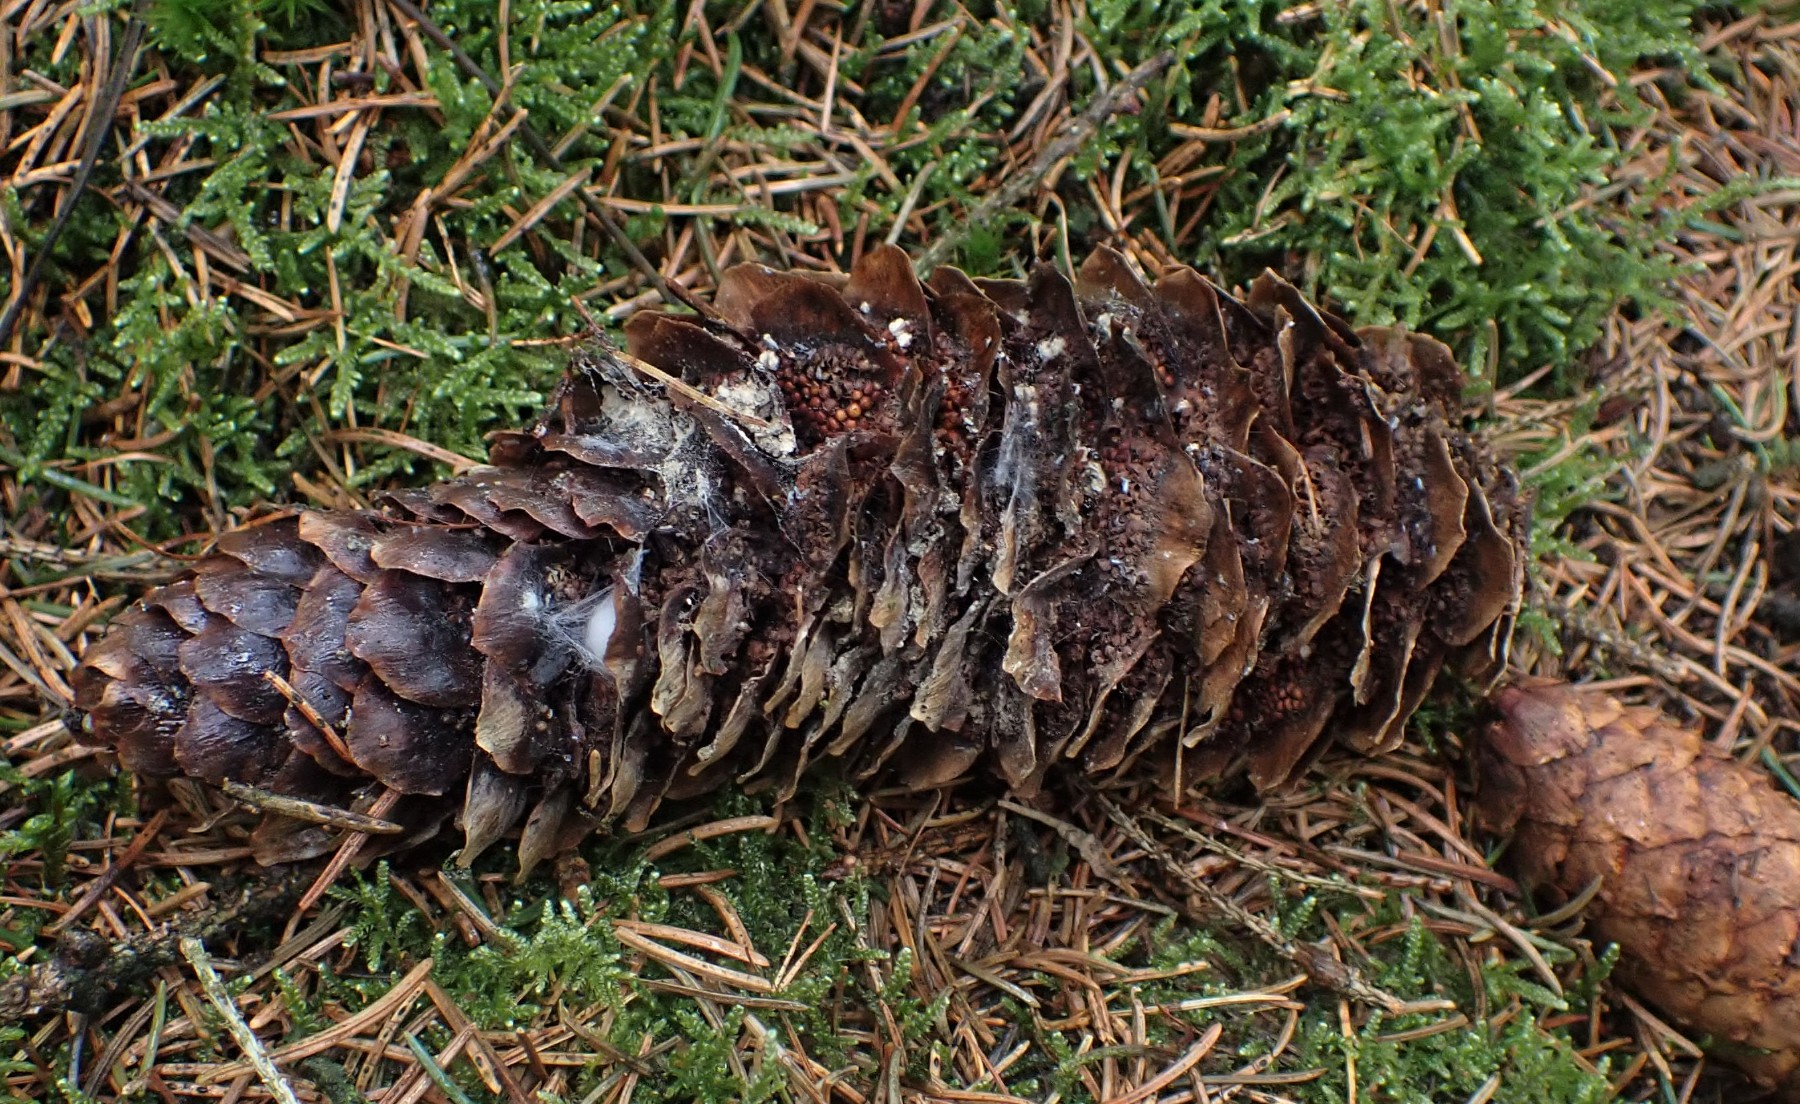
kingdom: Fungi
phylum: Basidiomycota
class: Pucciniomycetes
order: Pucciniales
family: Pucciniastraceae
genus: Thekopsora
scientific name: Thekopsora areolata
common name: grankogle-nålerust
